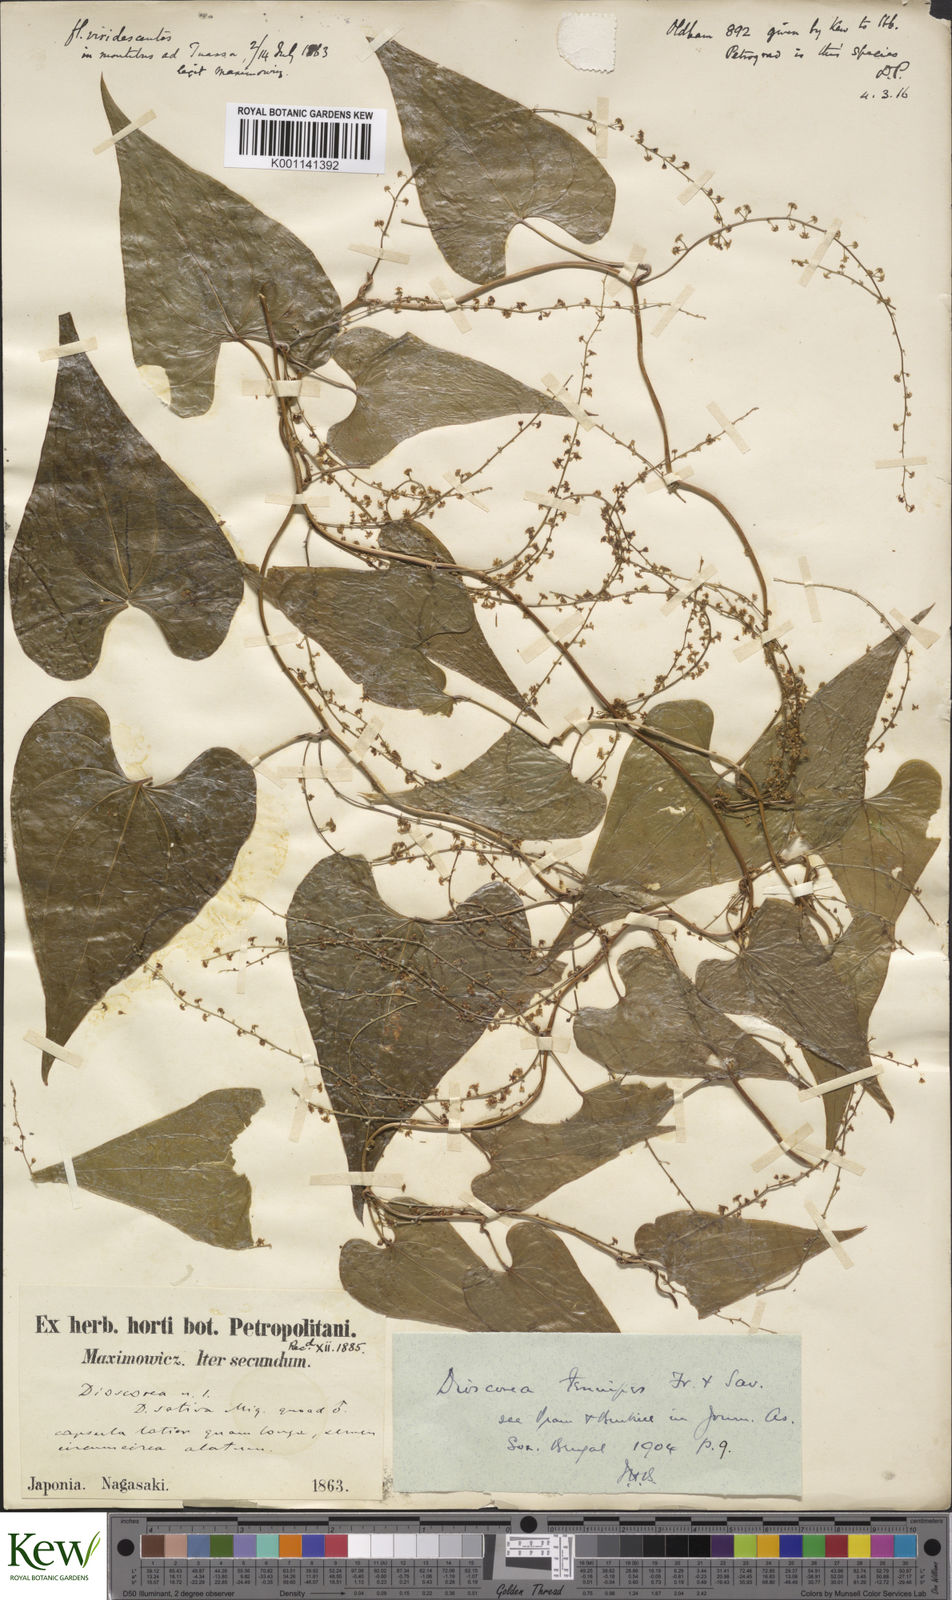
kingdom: Plantae
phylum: Tracheophyta
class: Liliopsida
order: Dioscoreales
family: Dioscoreaceae
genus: Dioscorea
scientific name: Dioscorea tenuipes
